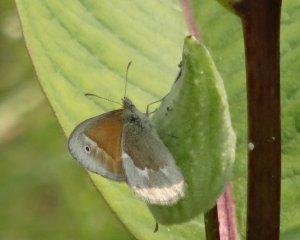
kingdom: Animalia
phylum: Arthropoda
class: Insecta
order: Lepidoptera
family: Nymphalidae
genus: Coenonympha
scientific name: Coenonympha tullia
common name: Large Heath
